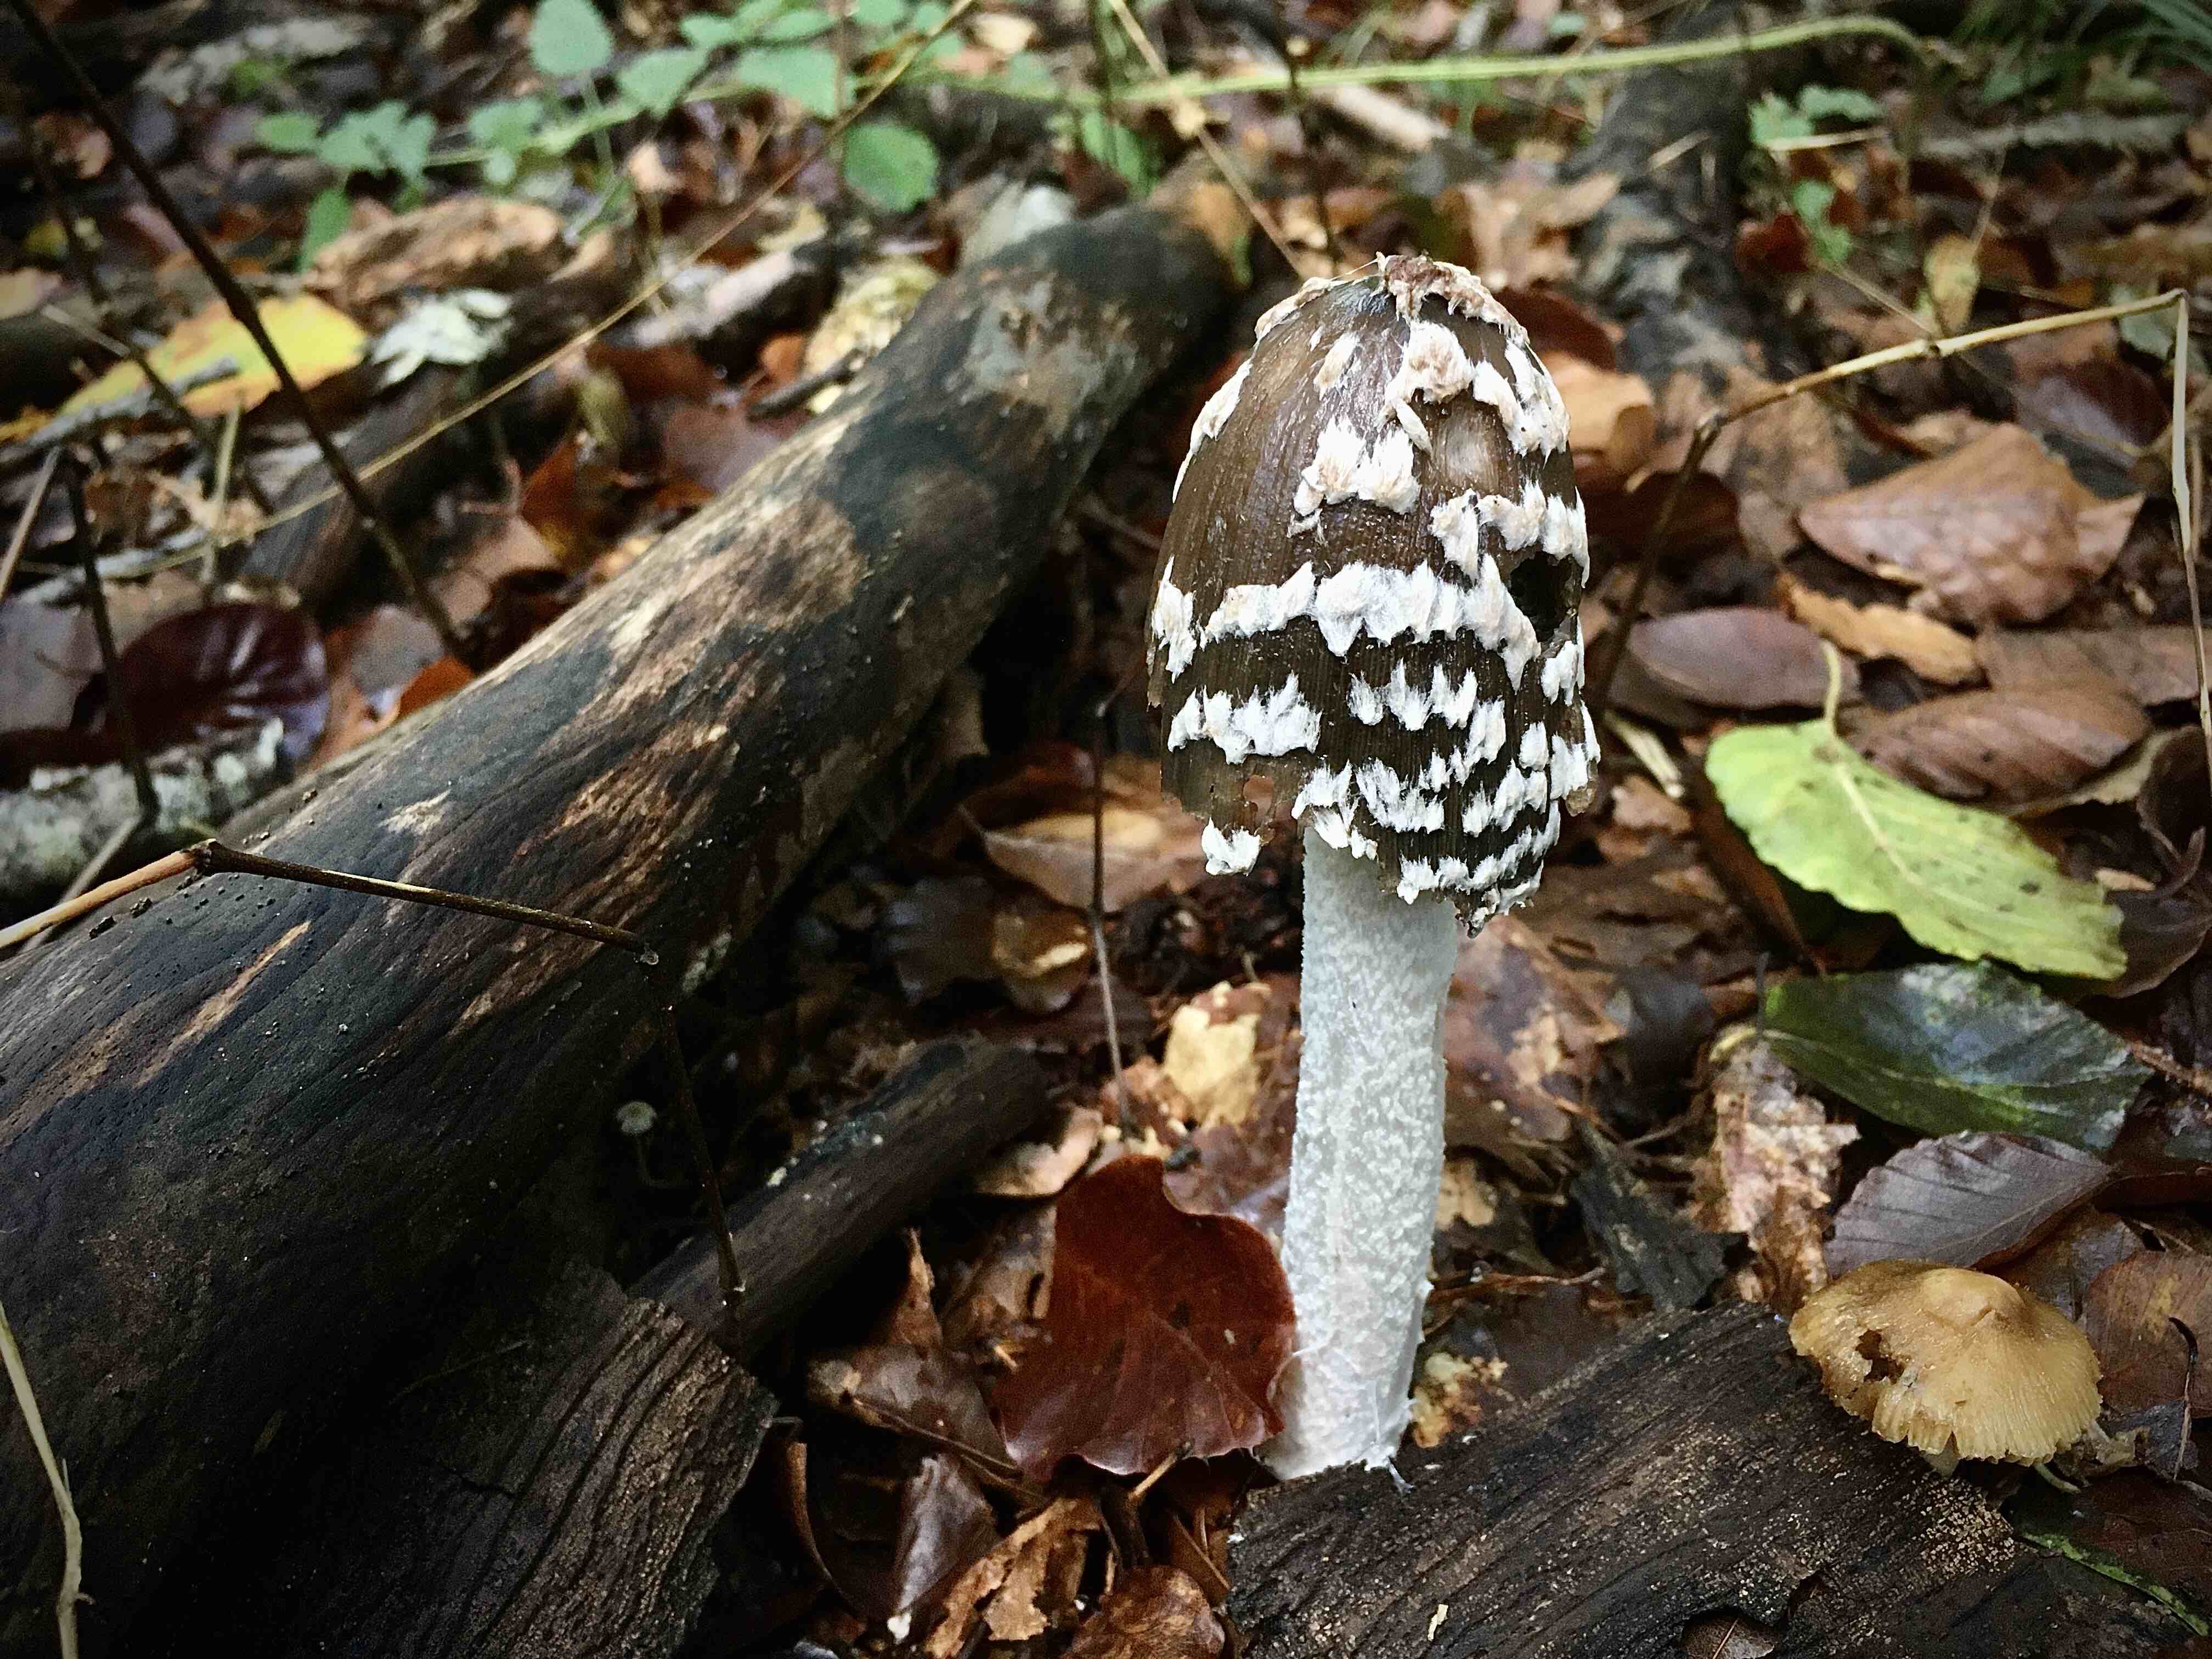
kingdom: Fungi
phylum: Basidiomycota
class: Agaricomycetes
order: Agaricales
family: Psathyrellaceae
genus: Coprinopsis
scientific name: Coprinopsis picacea
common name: skade-blækhat
